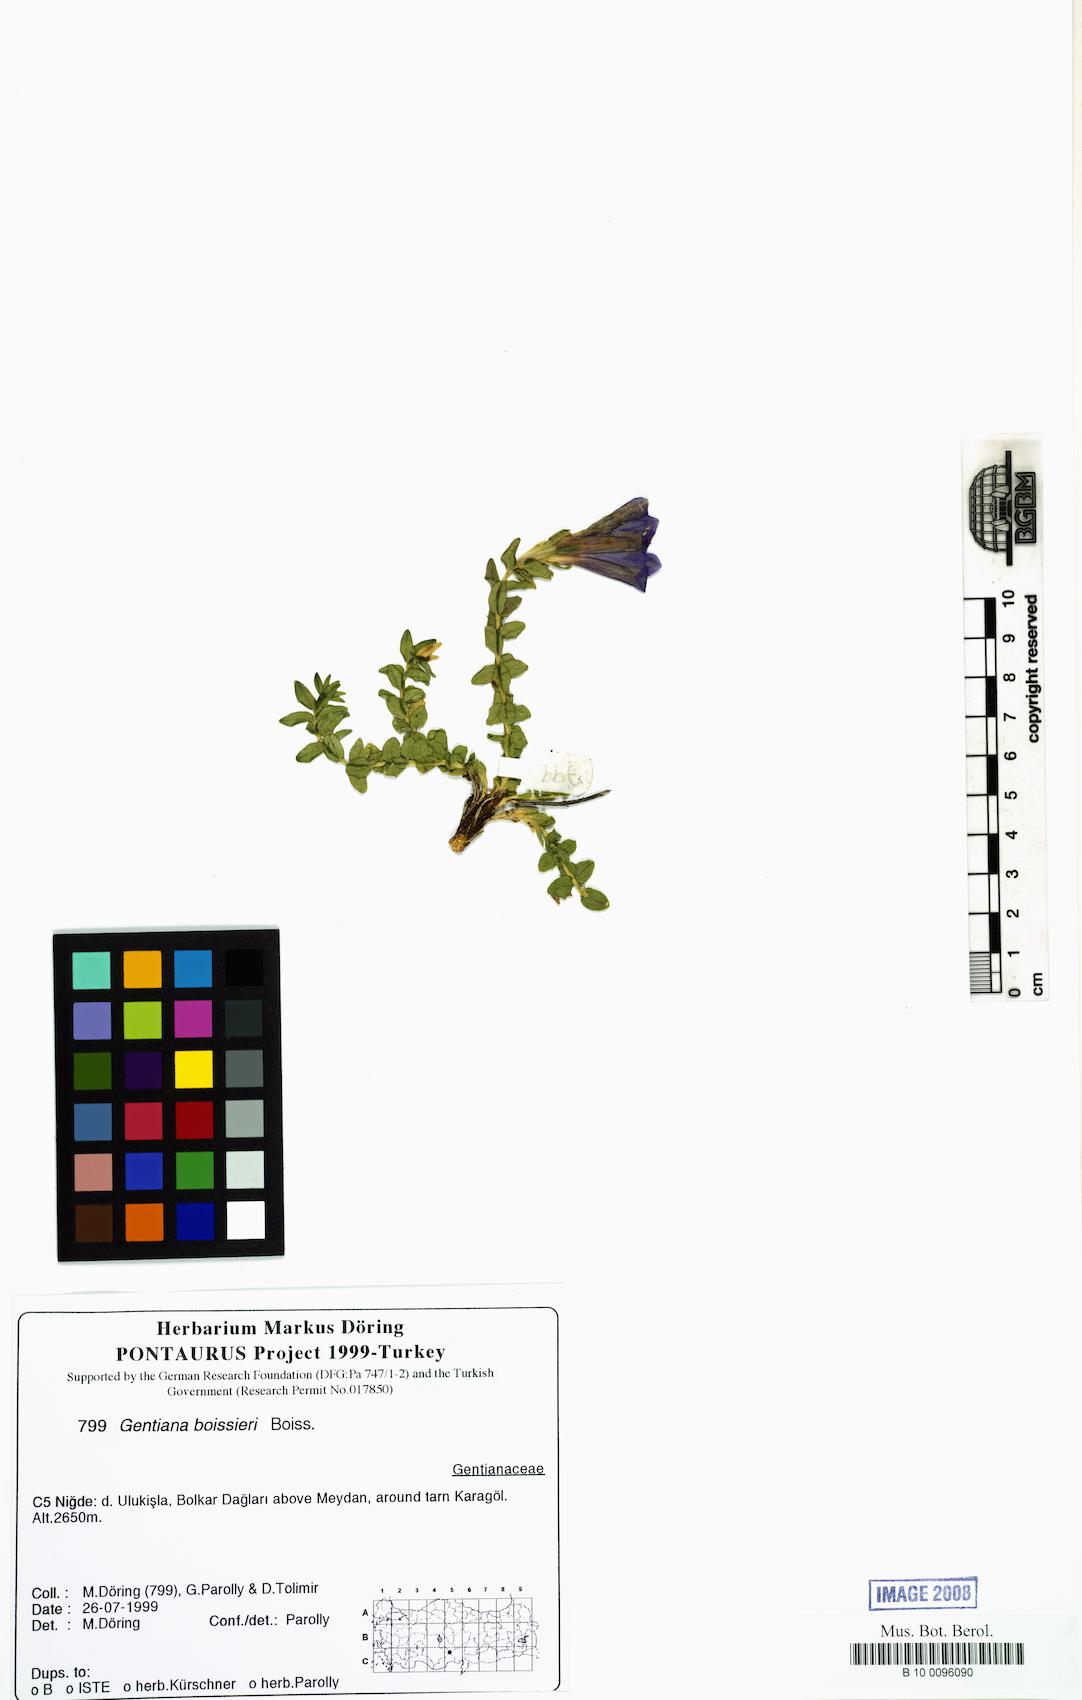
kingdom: Plantae
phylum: Tracheophyta
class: Magnoliopsida
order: Gentianales
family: Gentianaceae
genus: Gentiana
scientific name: Gentiana boissieri
